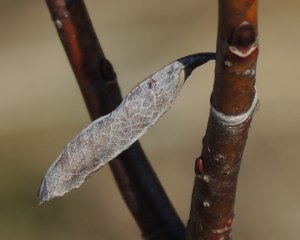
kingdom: Animalia
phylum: Arthropoda
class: Insecta
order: Lepidoptera
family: Nymphalidae
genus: Limenitis
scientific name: Limenitis archippus
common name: Viceroy
